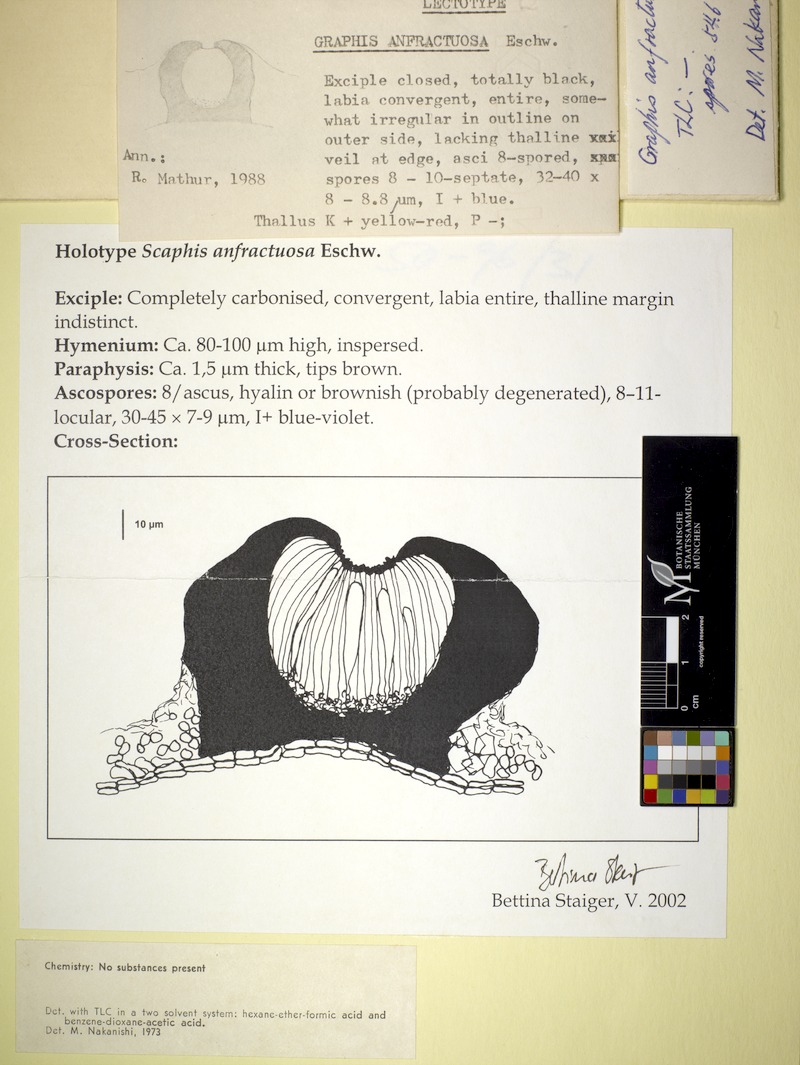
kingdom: Fungi
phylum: Ascomycota
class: Lecanoromycetes
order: Ostropales
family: Graphidaceae
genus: Graphis
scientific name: Graphis anfractuosa
